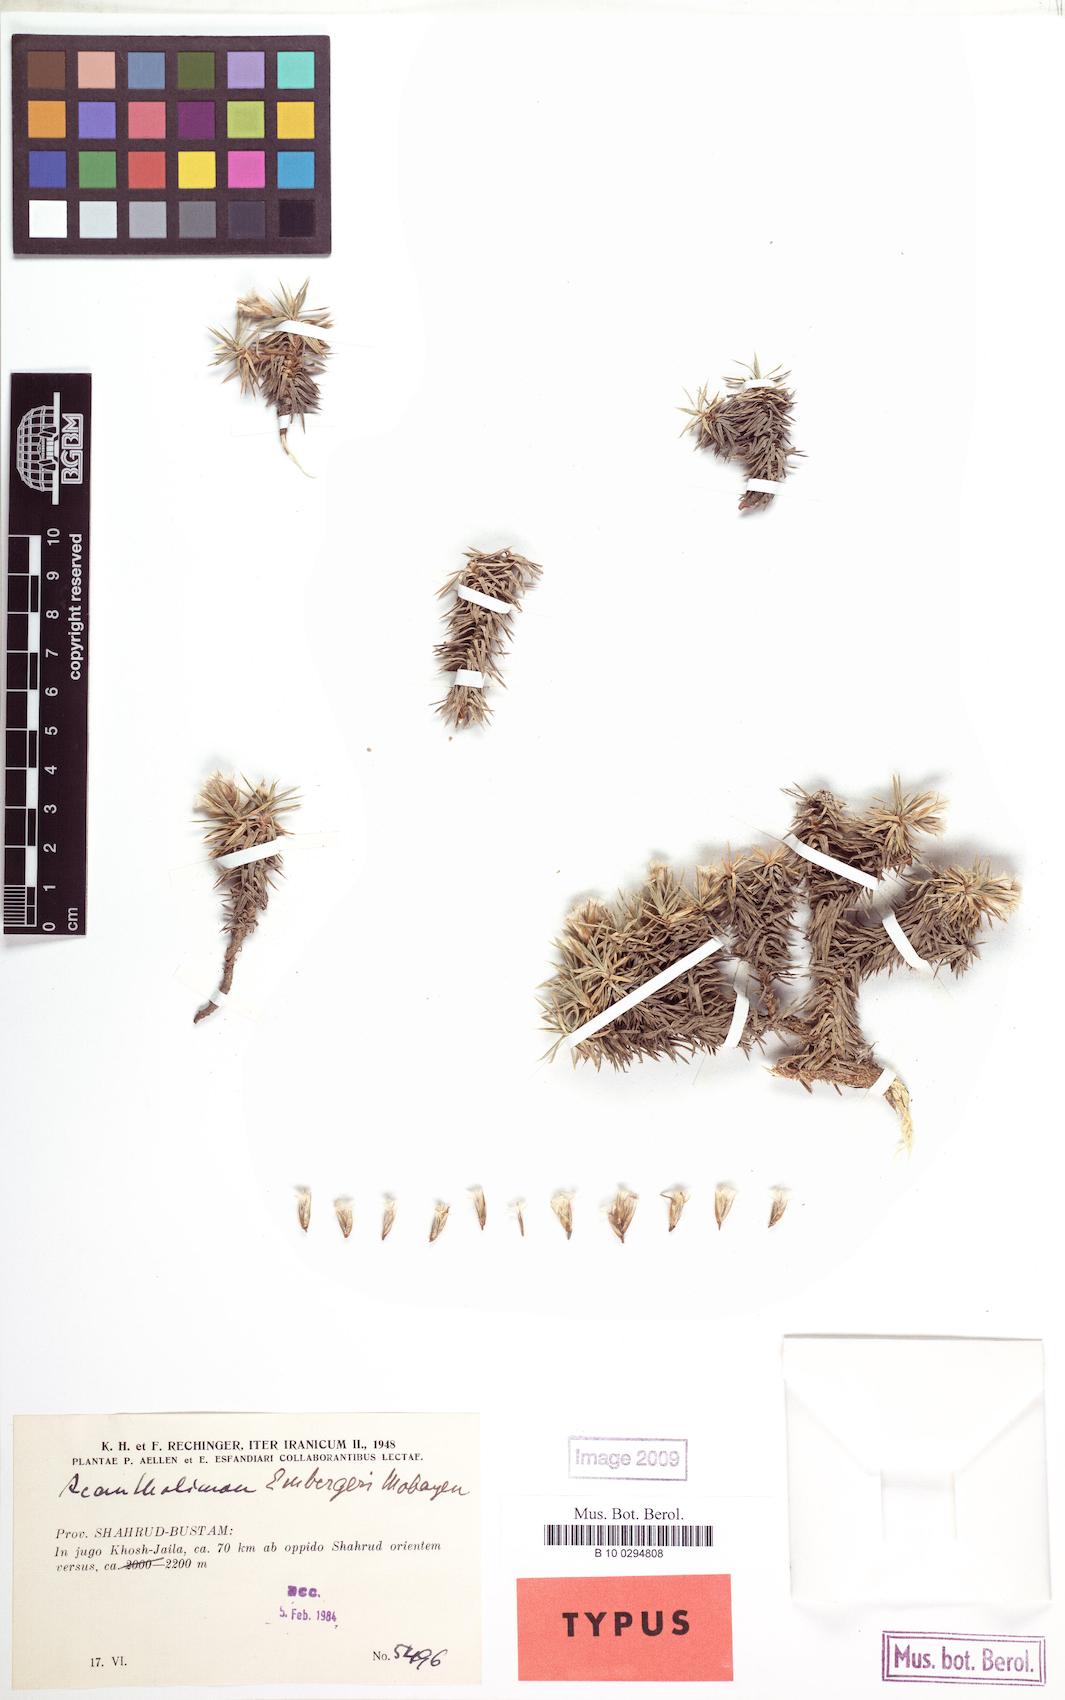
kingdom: Plantae
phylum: Tracheophyta
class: Magnoliopsida
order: Caryophyllales
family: Plumbaginaceae
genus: Acantholimon
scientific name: Acantholimon embergeri
